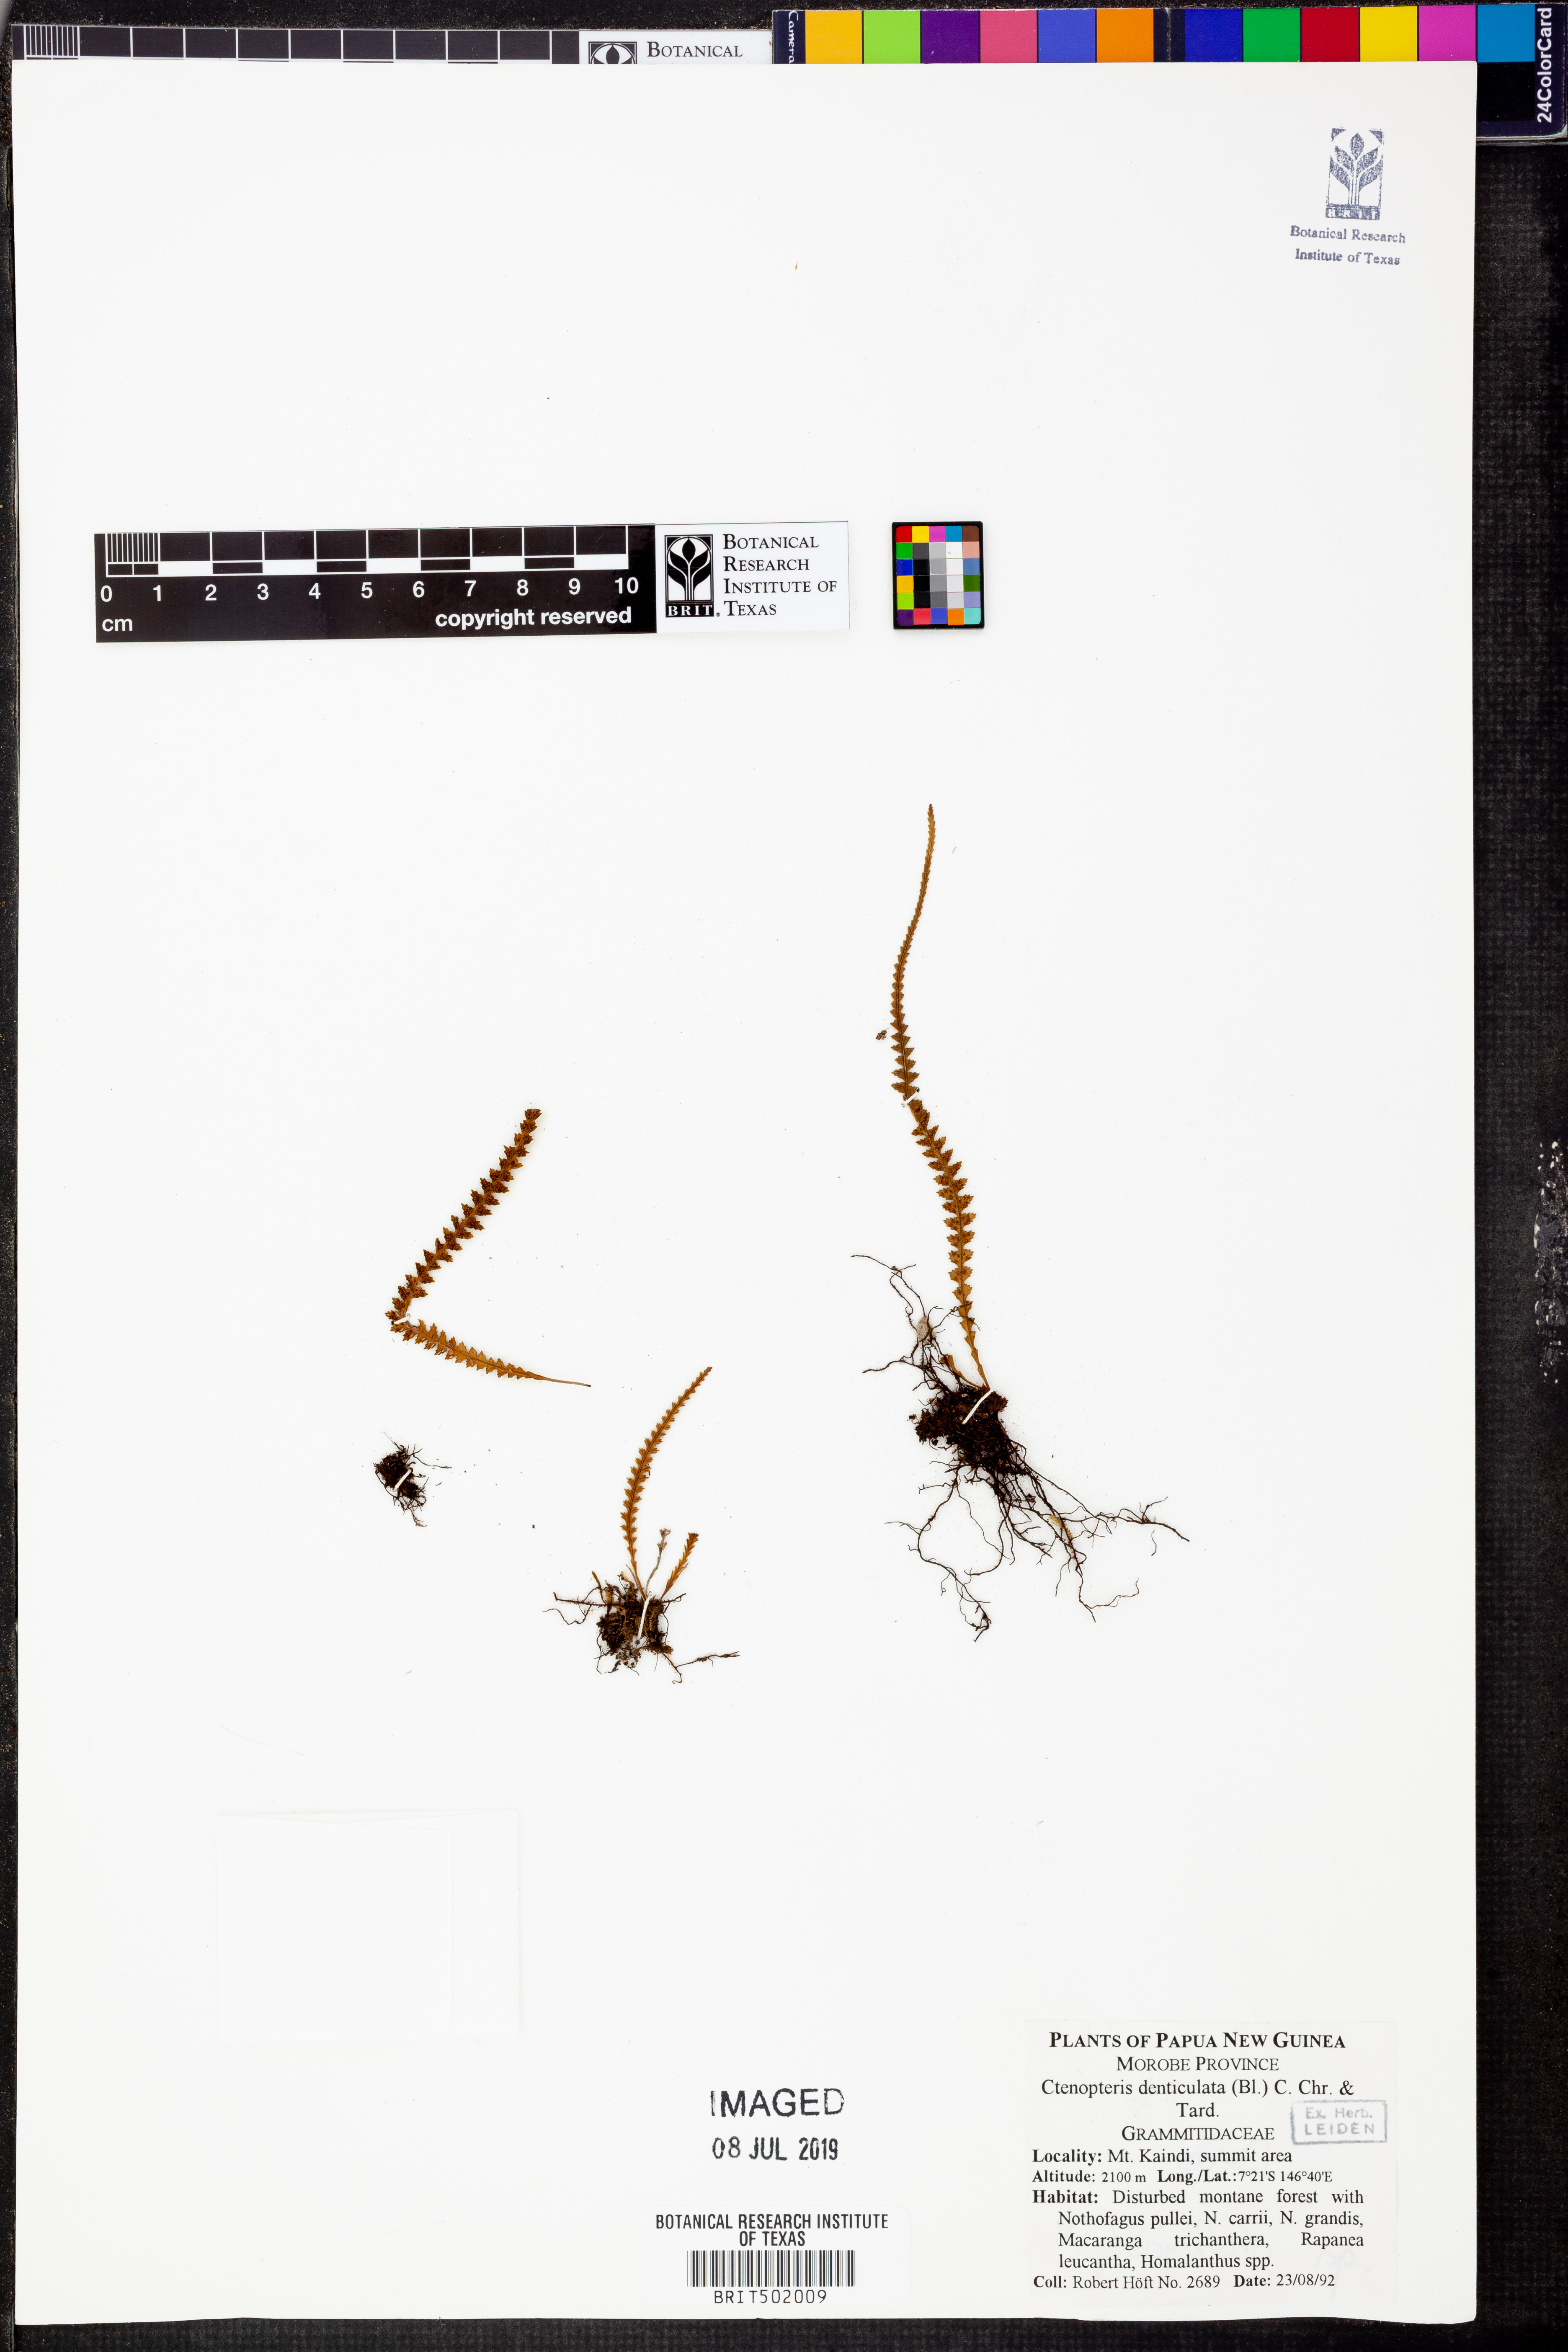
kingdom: Plantae
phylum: Tracheophyta
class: Polypodiopsida
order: Polypodiales
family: Polypodiaceae
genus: Ctenopterella
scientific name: Ctenopterella denticulata
